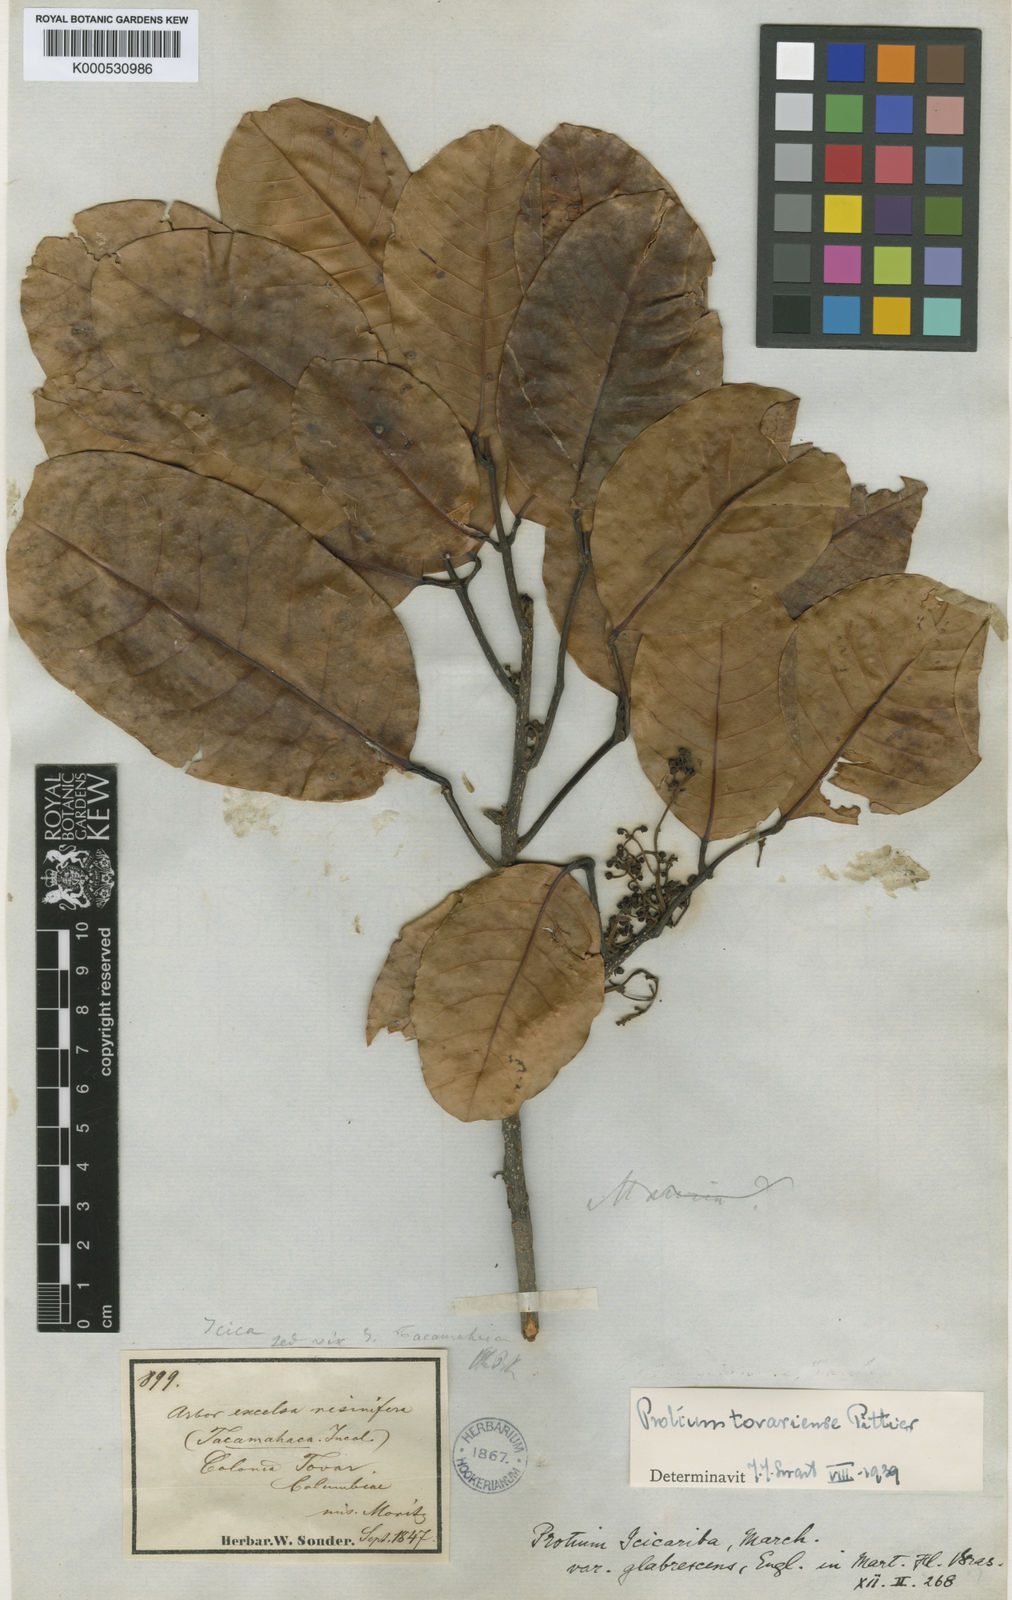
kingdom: Plantae
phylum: Tracheophyta
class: Magnoliopsida
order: Sapindales
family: Burseraceae
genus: Protium
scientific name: Protium tovarense
